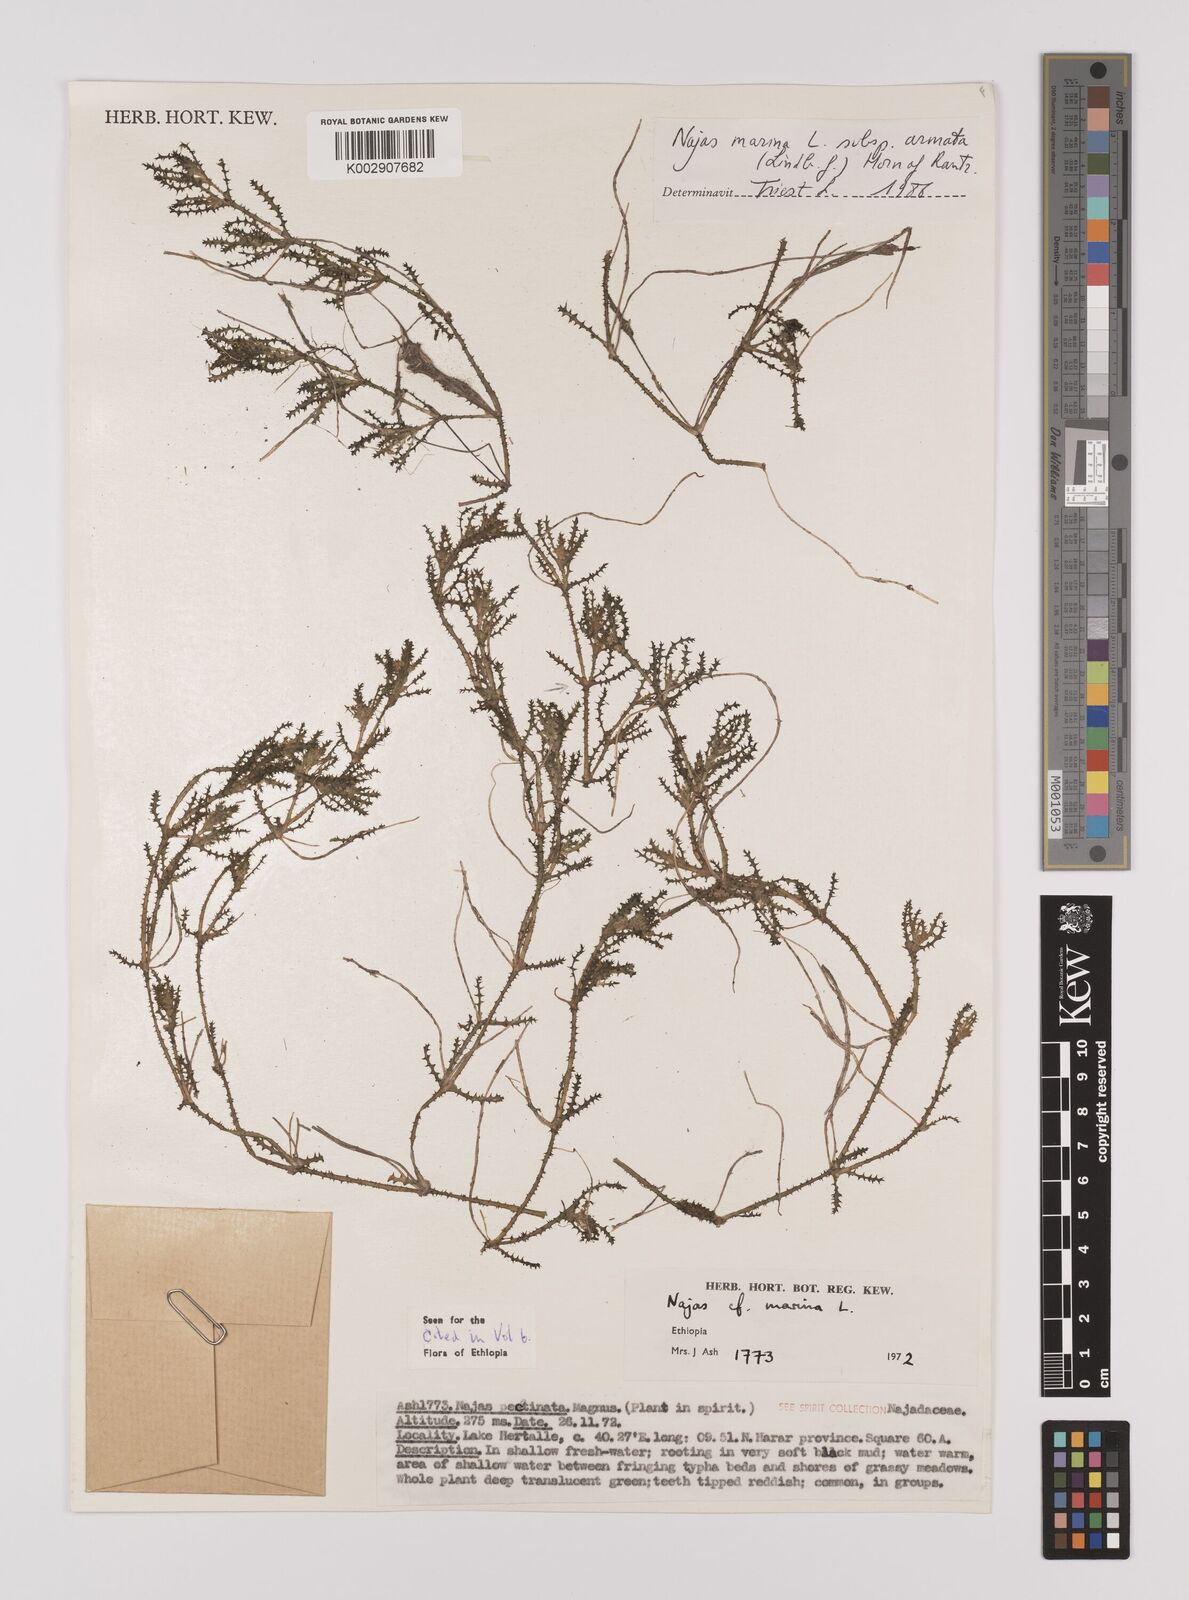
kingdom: Plantae
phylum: Tracheophyta
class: Liliopsida
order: Alismatales
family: Hydrocharitaceae
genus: Najas
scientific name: Najas marina
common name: Holly-leaved naiad
